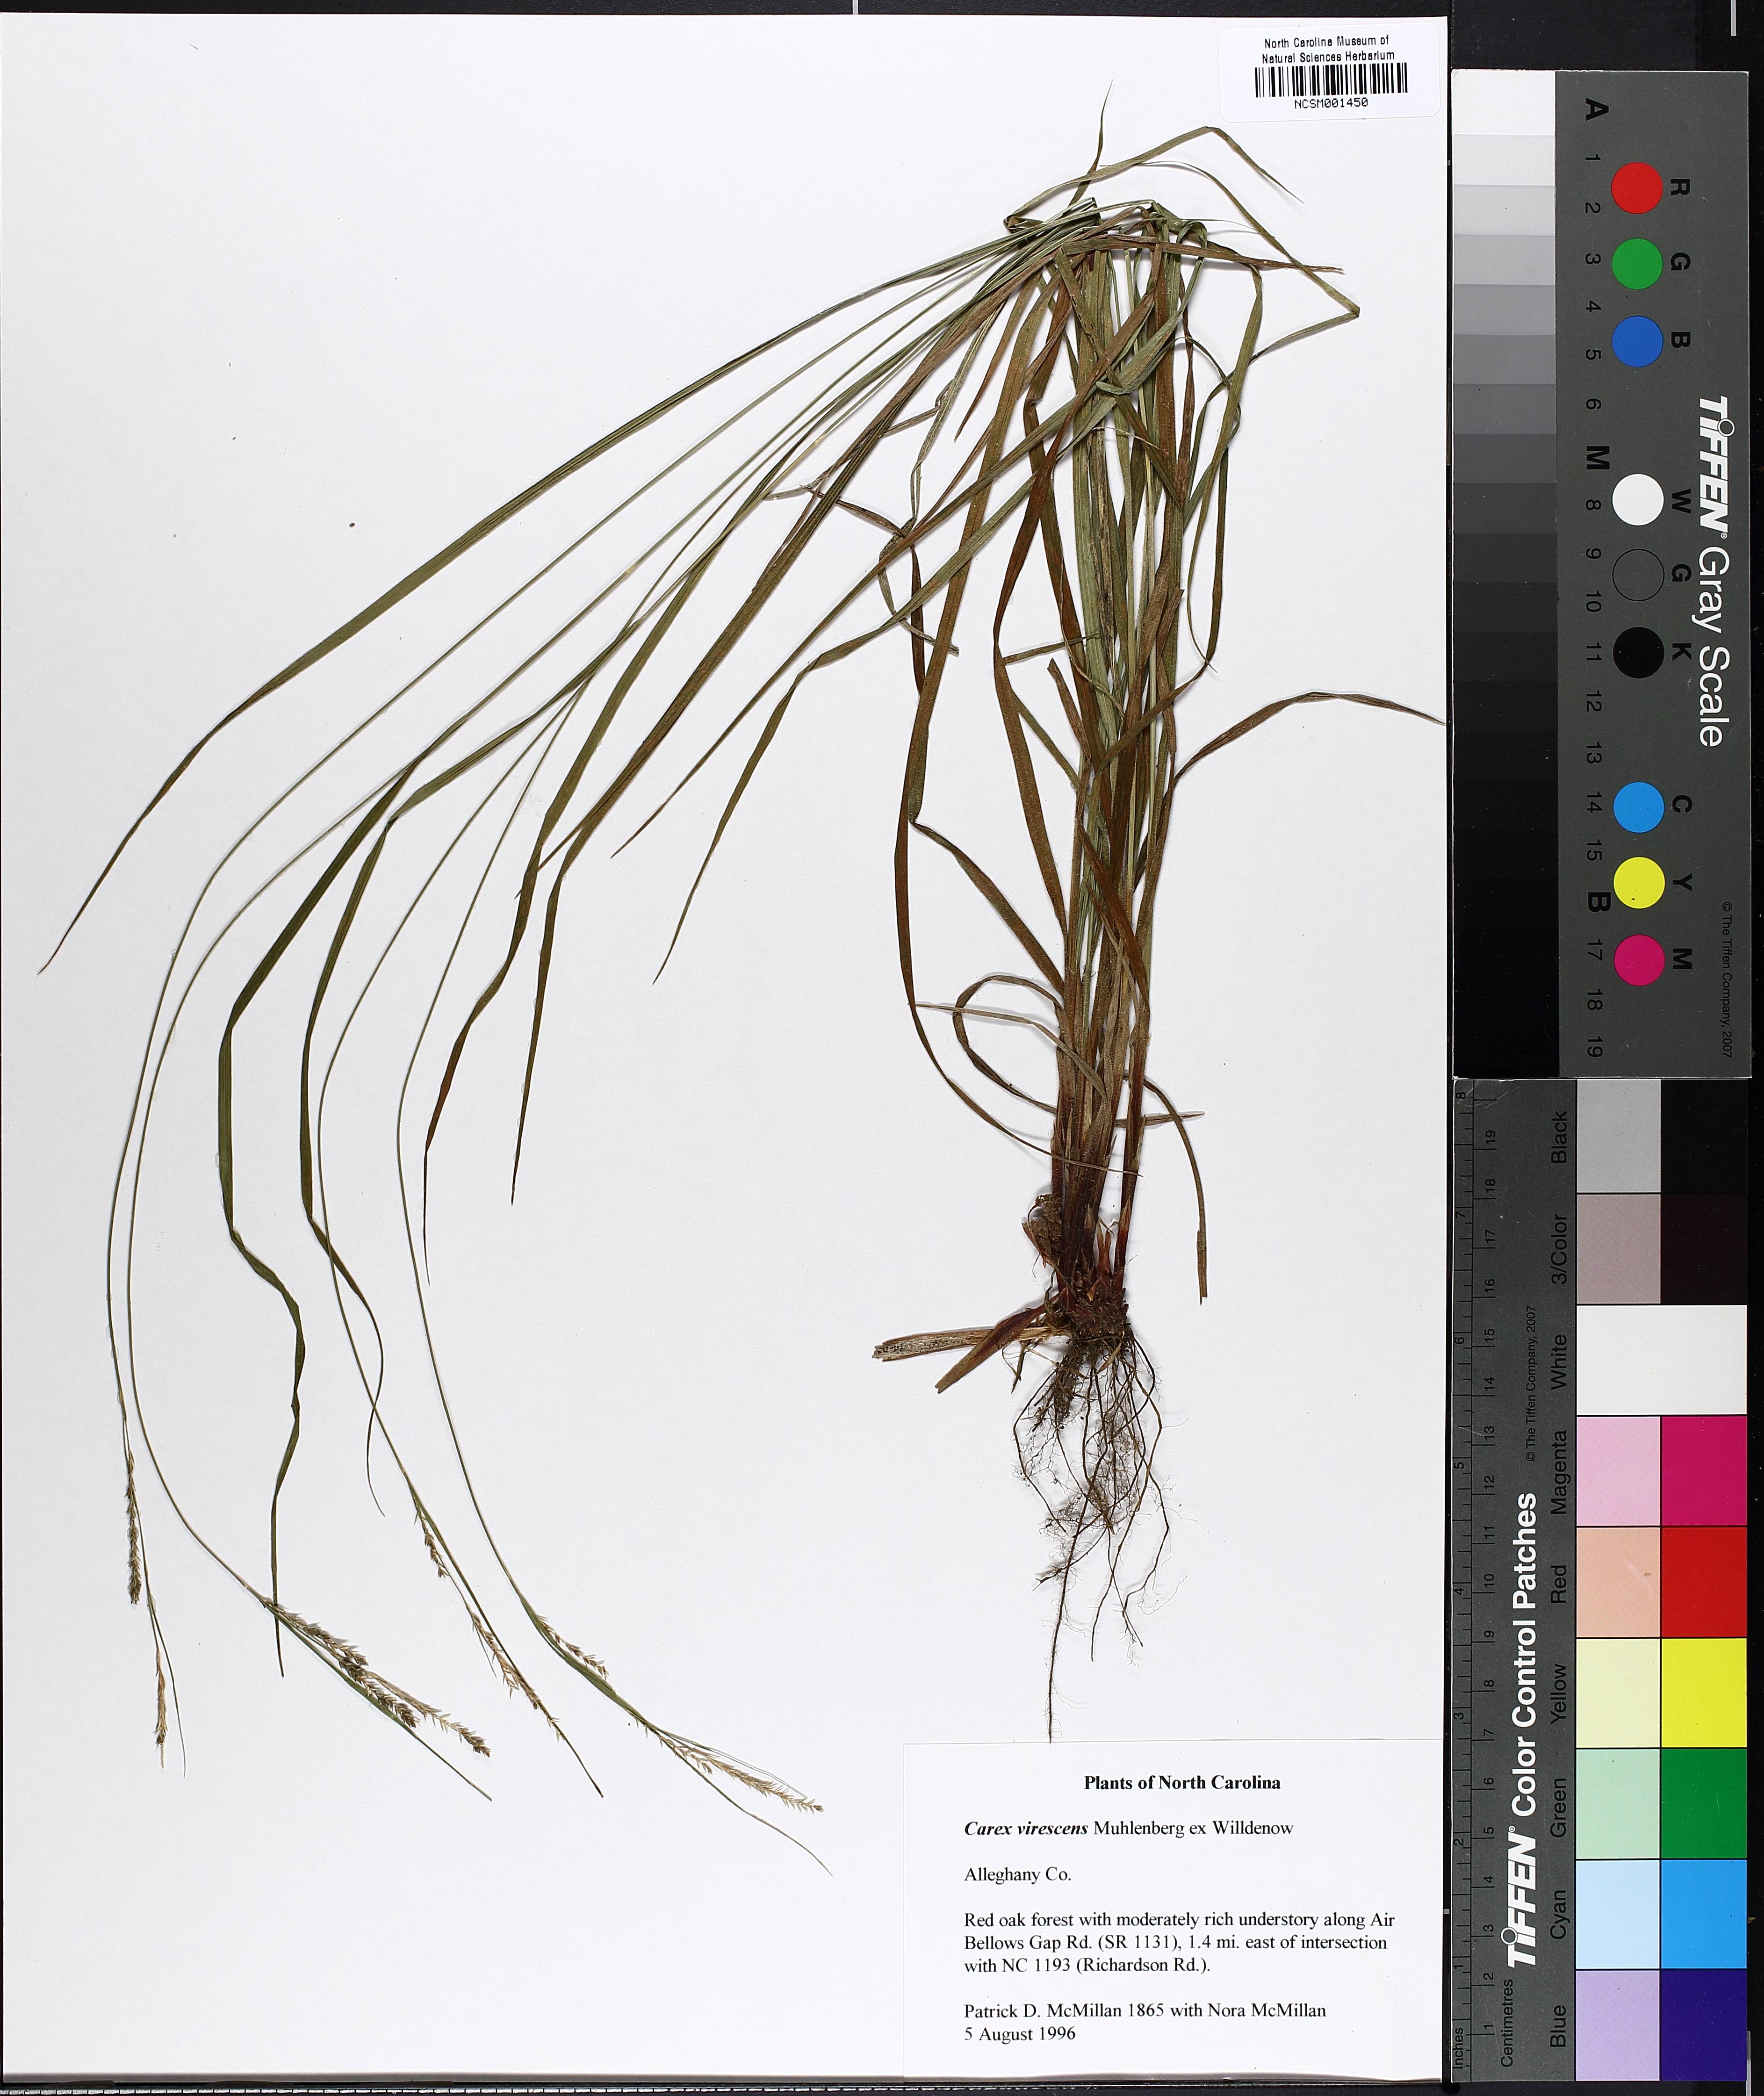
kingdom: Plantae
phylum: Tracheophyta
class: Liliopsida
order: Poales
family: Cyperaceae
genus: Carex
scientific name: Carex virescens
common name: Ribbed sedge
